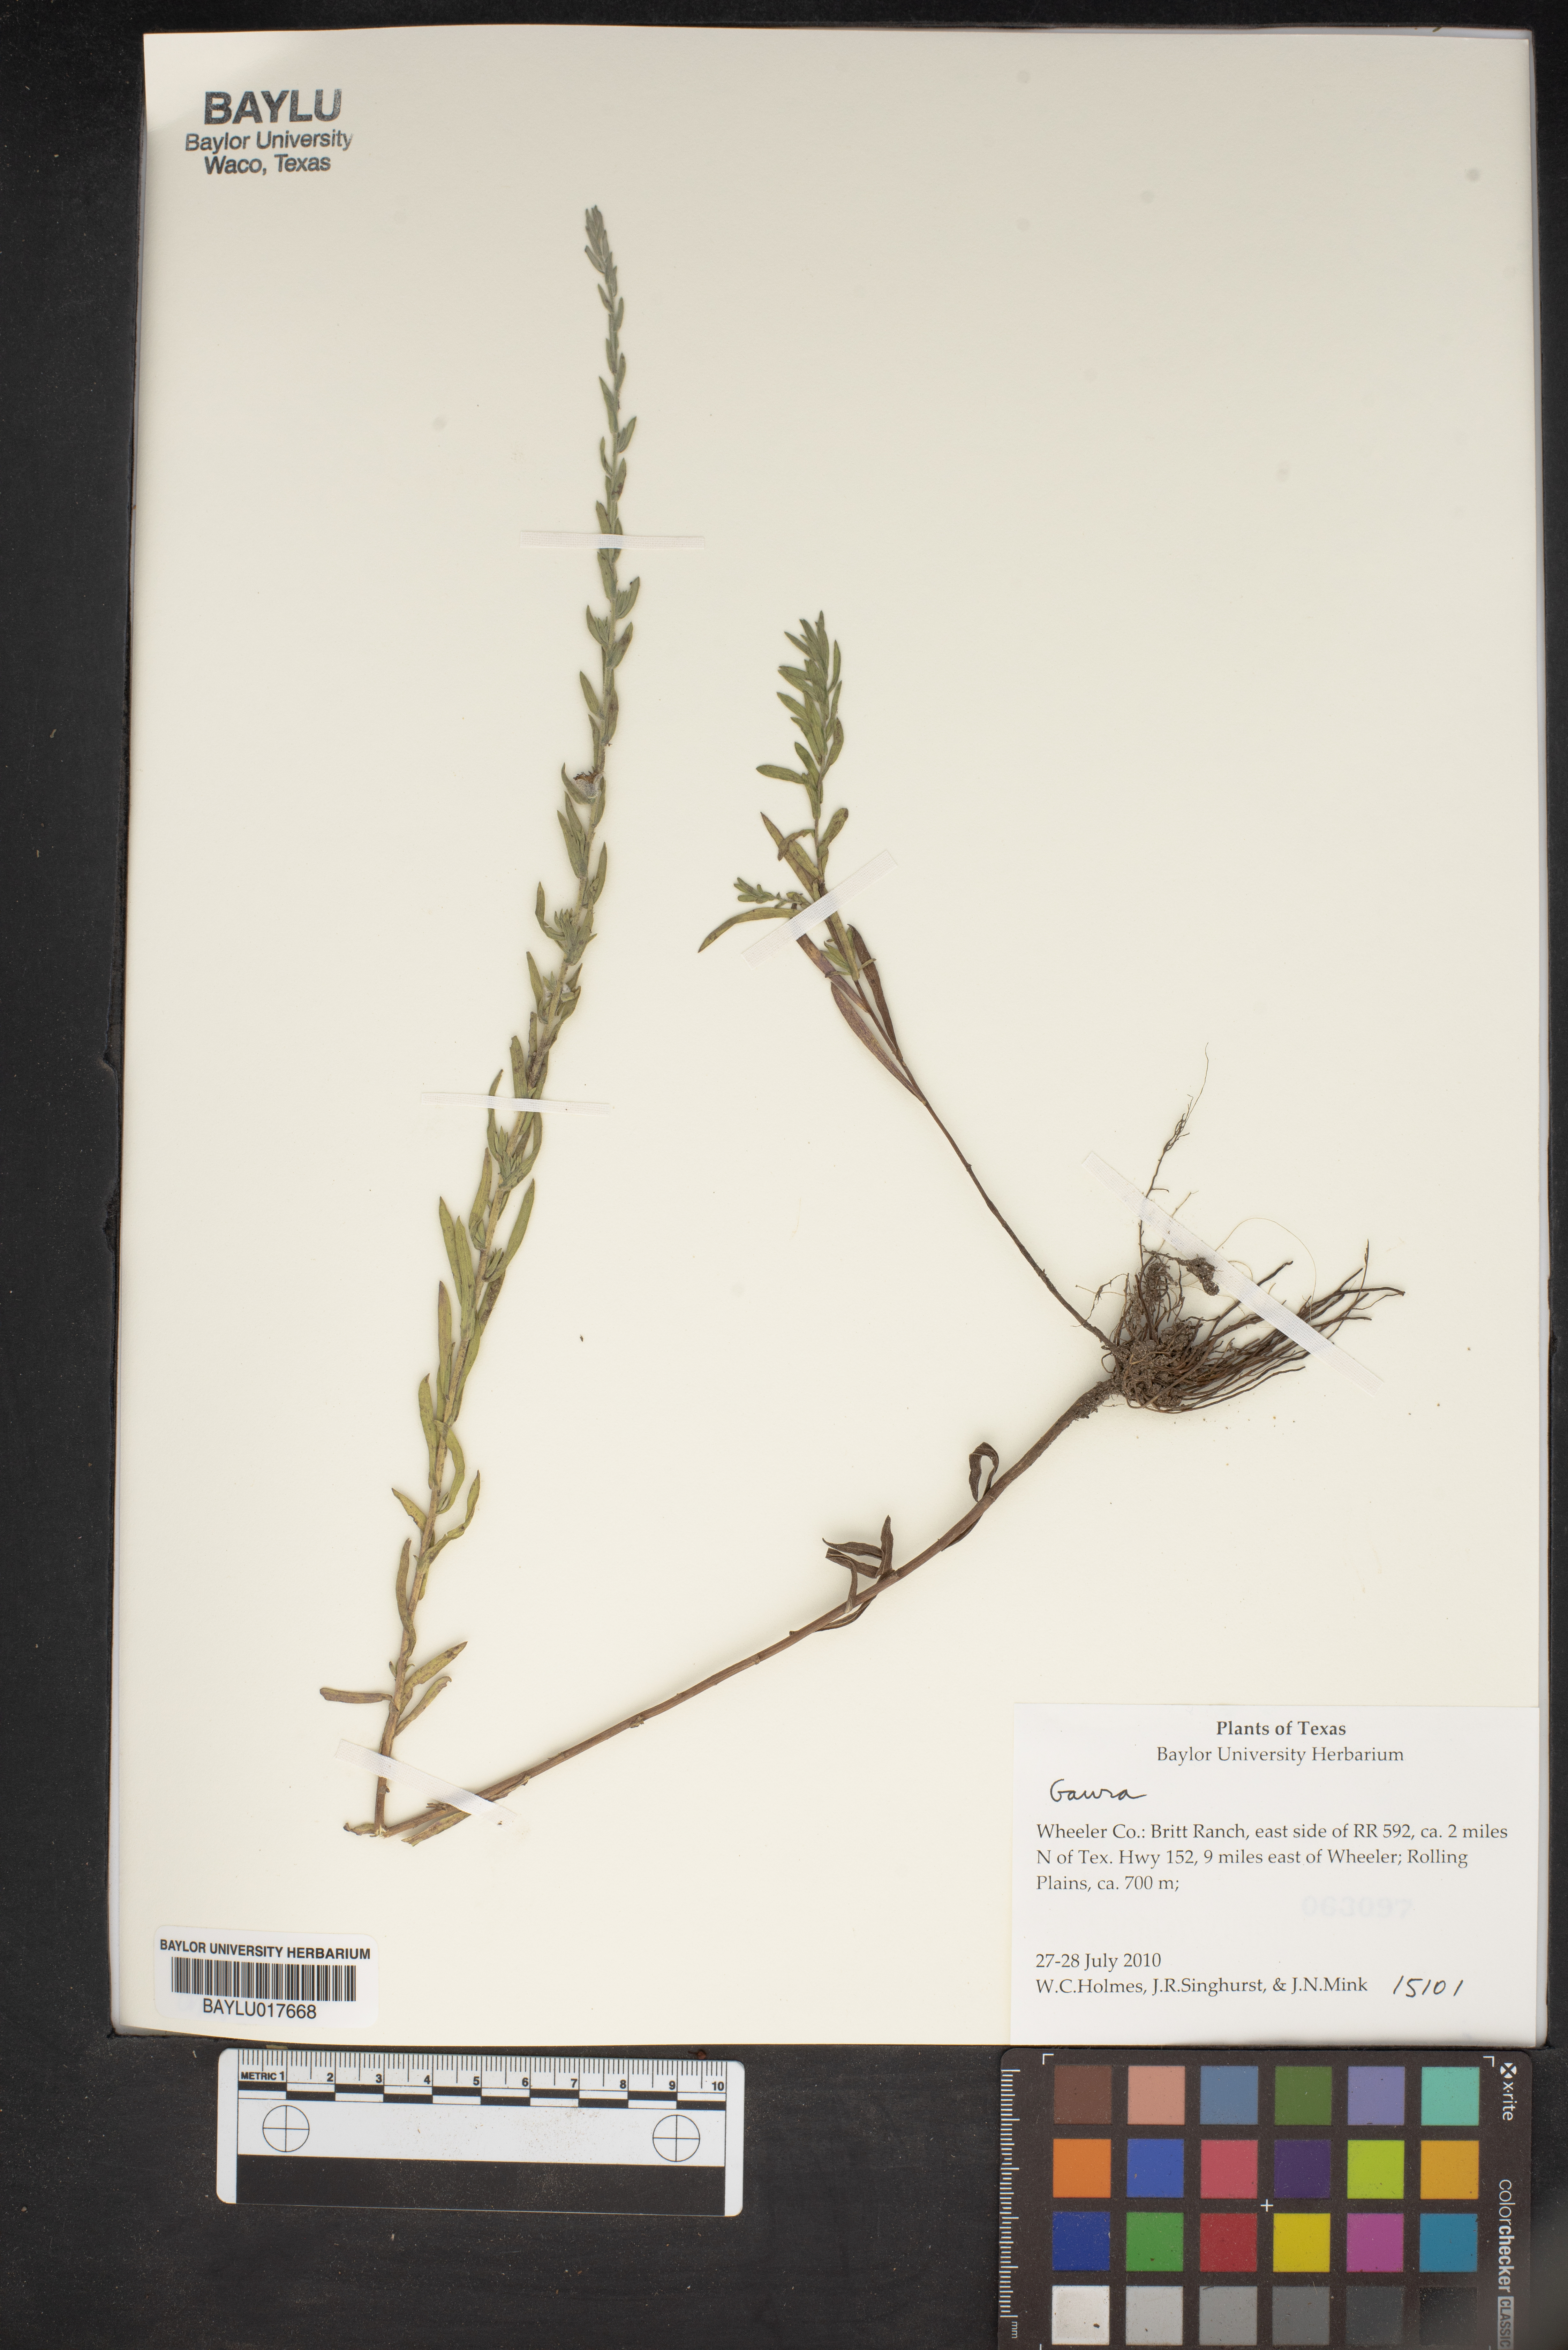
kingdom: Plantae
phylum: Tracheophyta
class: Magnoliopsida
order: Myrtales
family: Onagraceae
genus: Oenothera
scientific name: Oenothera
